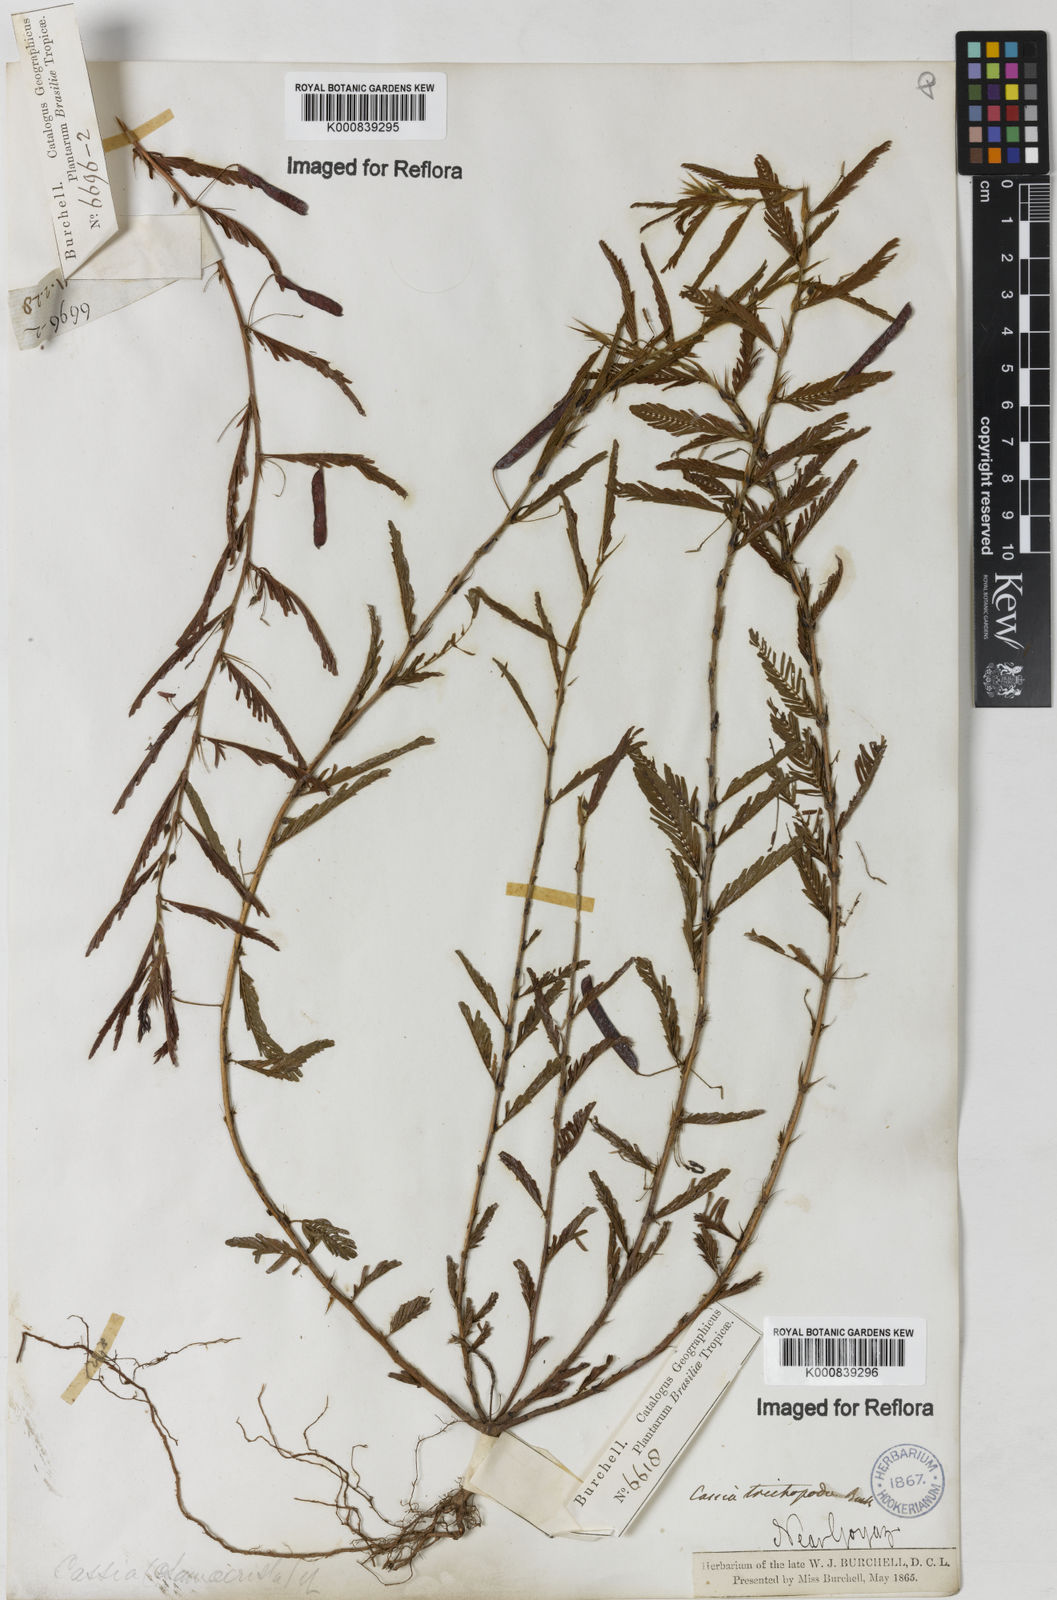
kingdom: Plantae
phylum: Tracheophyta
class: Magnoliopsida
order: Fabales
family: Fabaceae
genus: Chamaecrista
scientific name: Chamaecrista trichopoda
